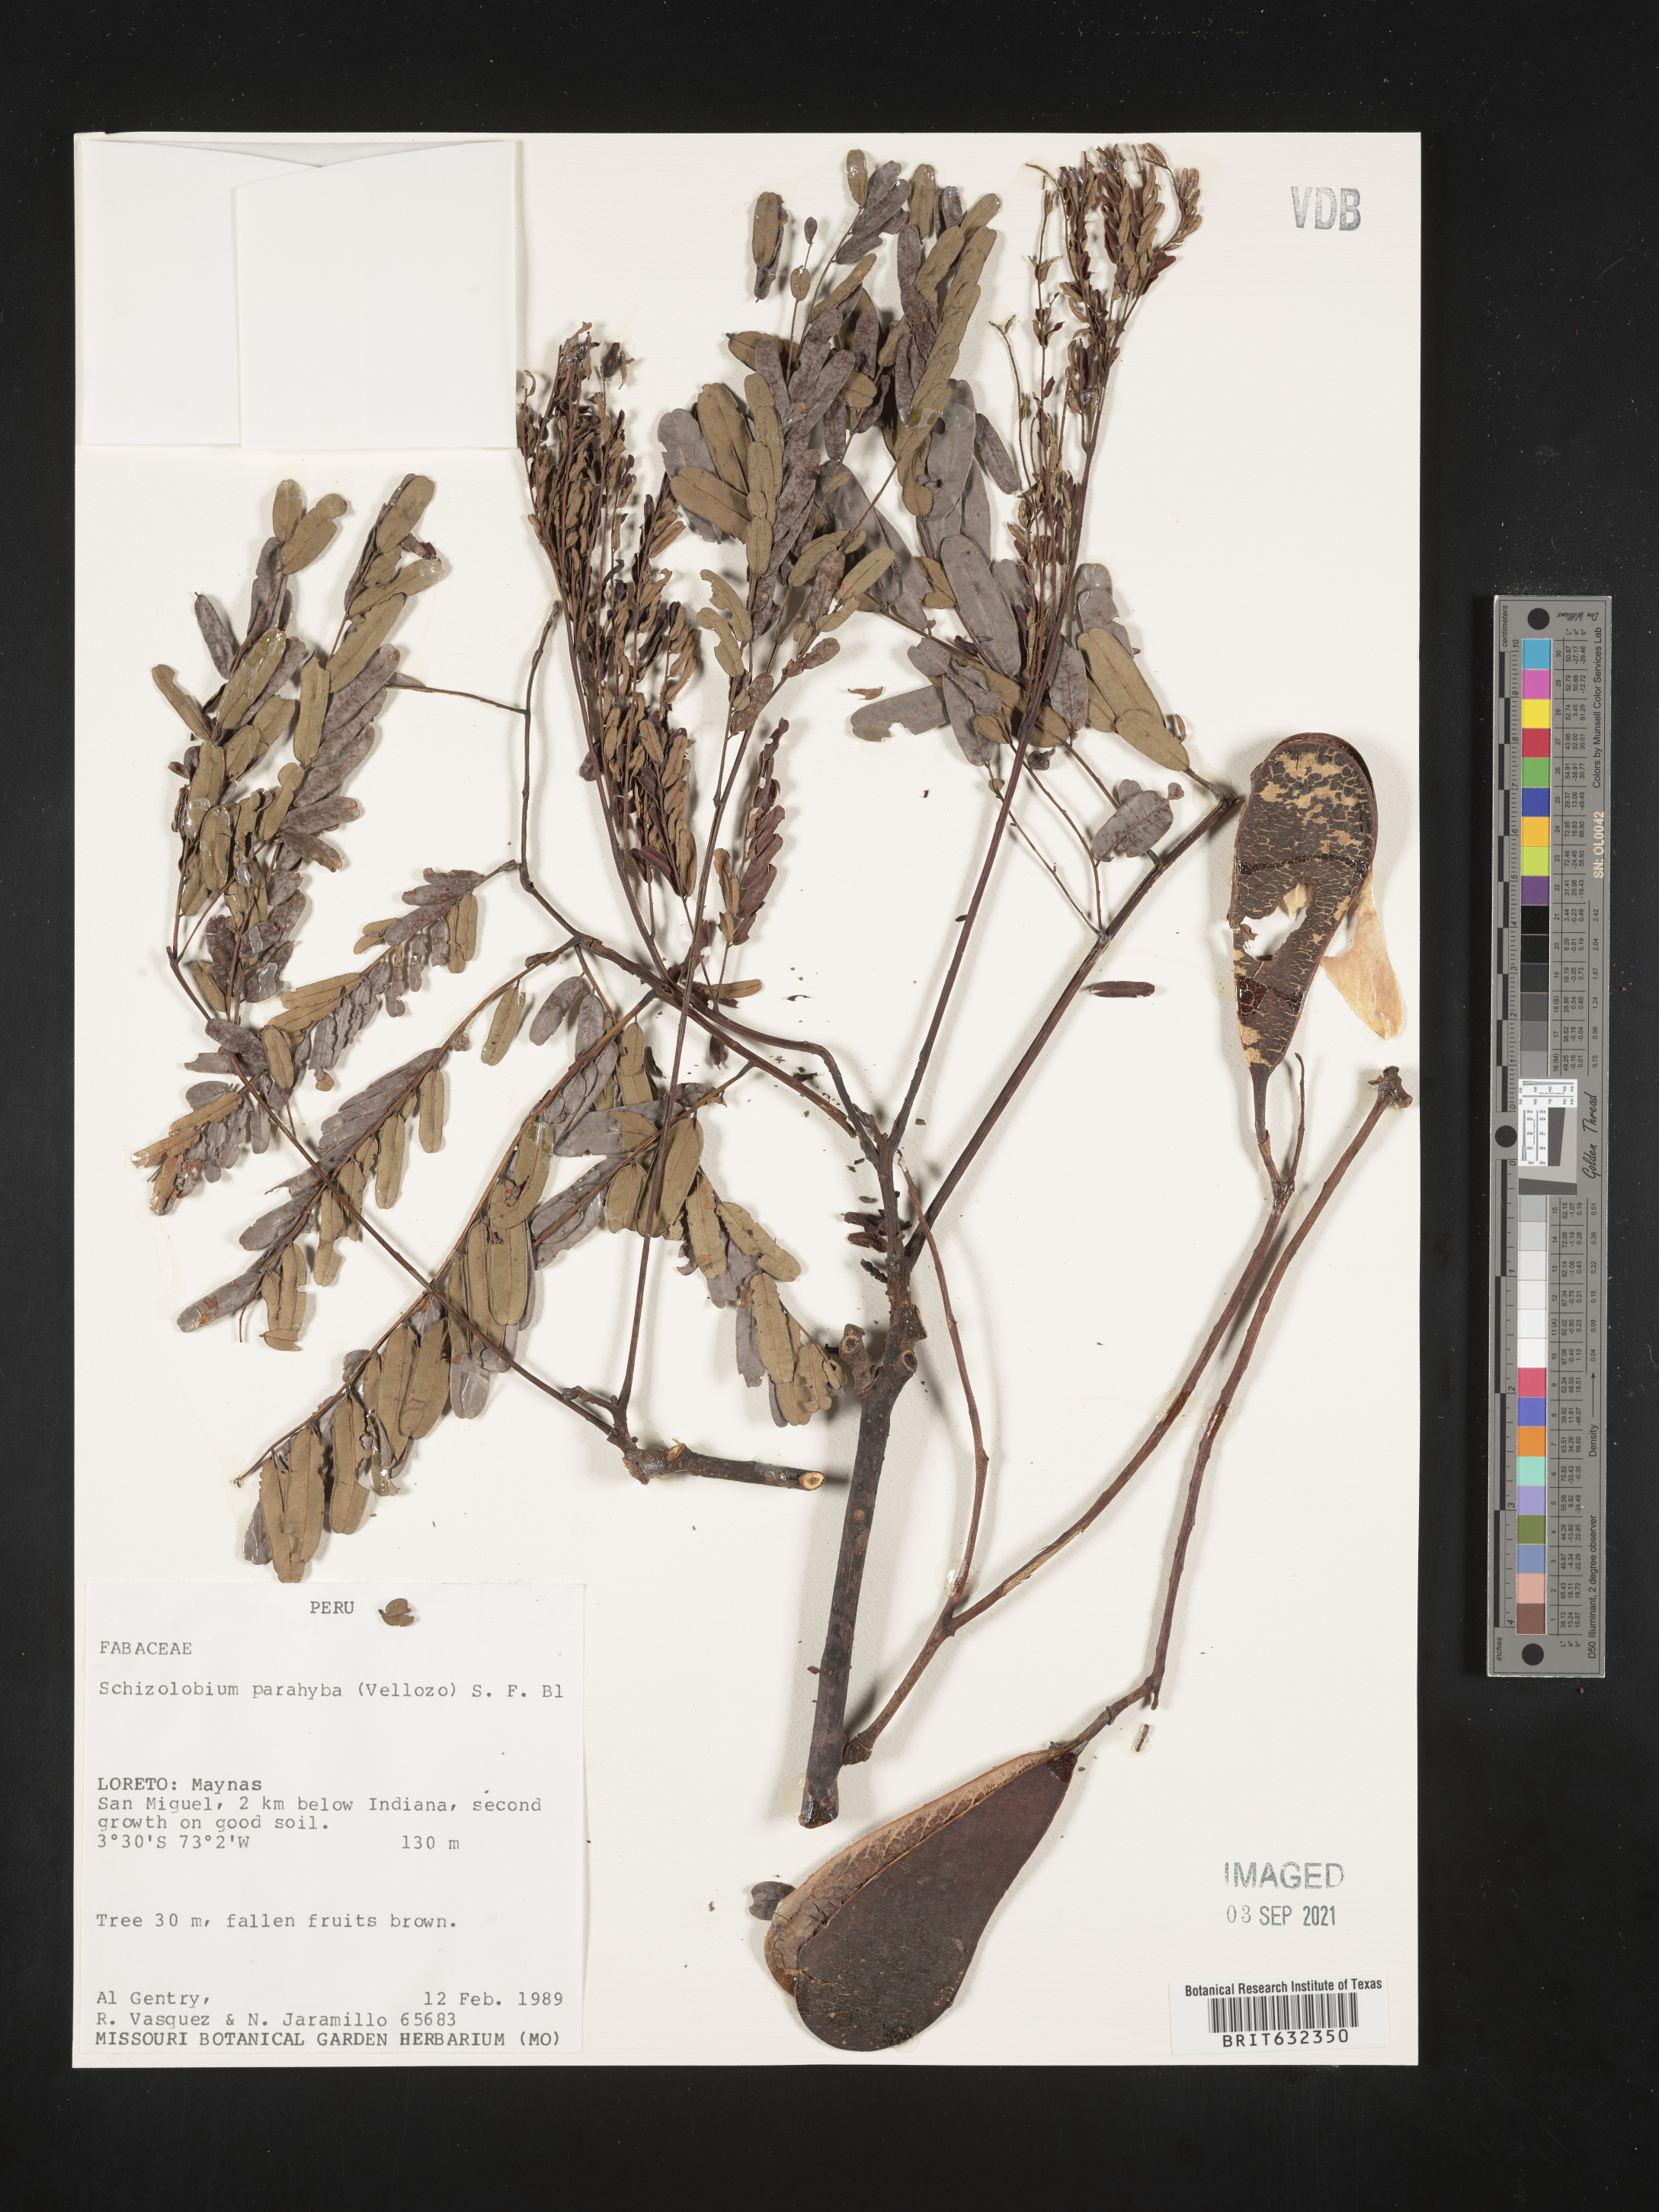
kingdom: Plantae
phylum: Tracheophyta
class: Magnoliopsida
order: Fabales
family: Fabaceae
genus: Tachigali
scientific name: Tachigali
